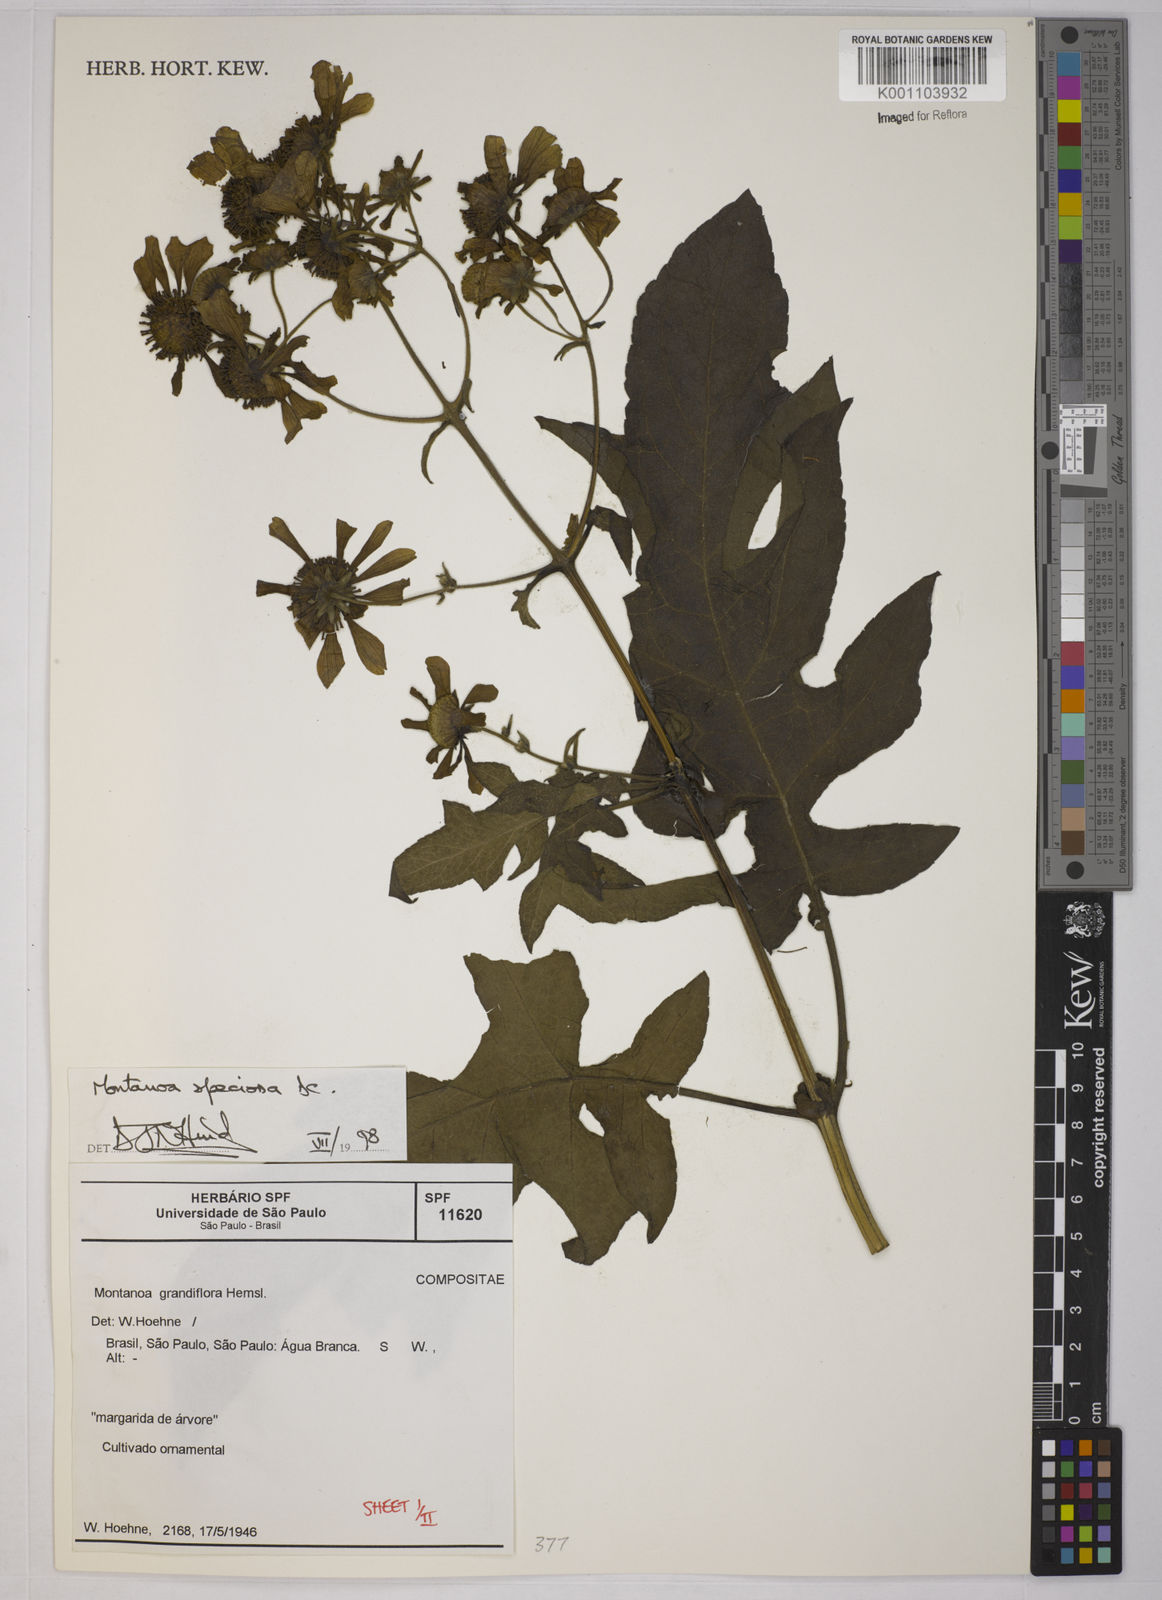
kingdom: Plantae
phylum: Tracheophyta
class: Magnoliopsida
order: Asterales
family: Asteraceae
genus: Montanoa
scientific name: Montanoa speciosa
